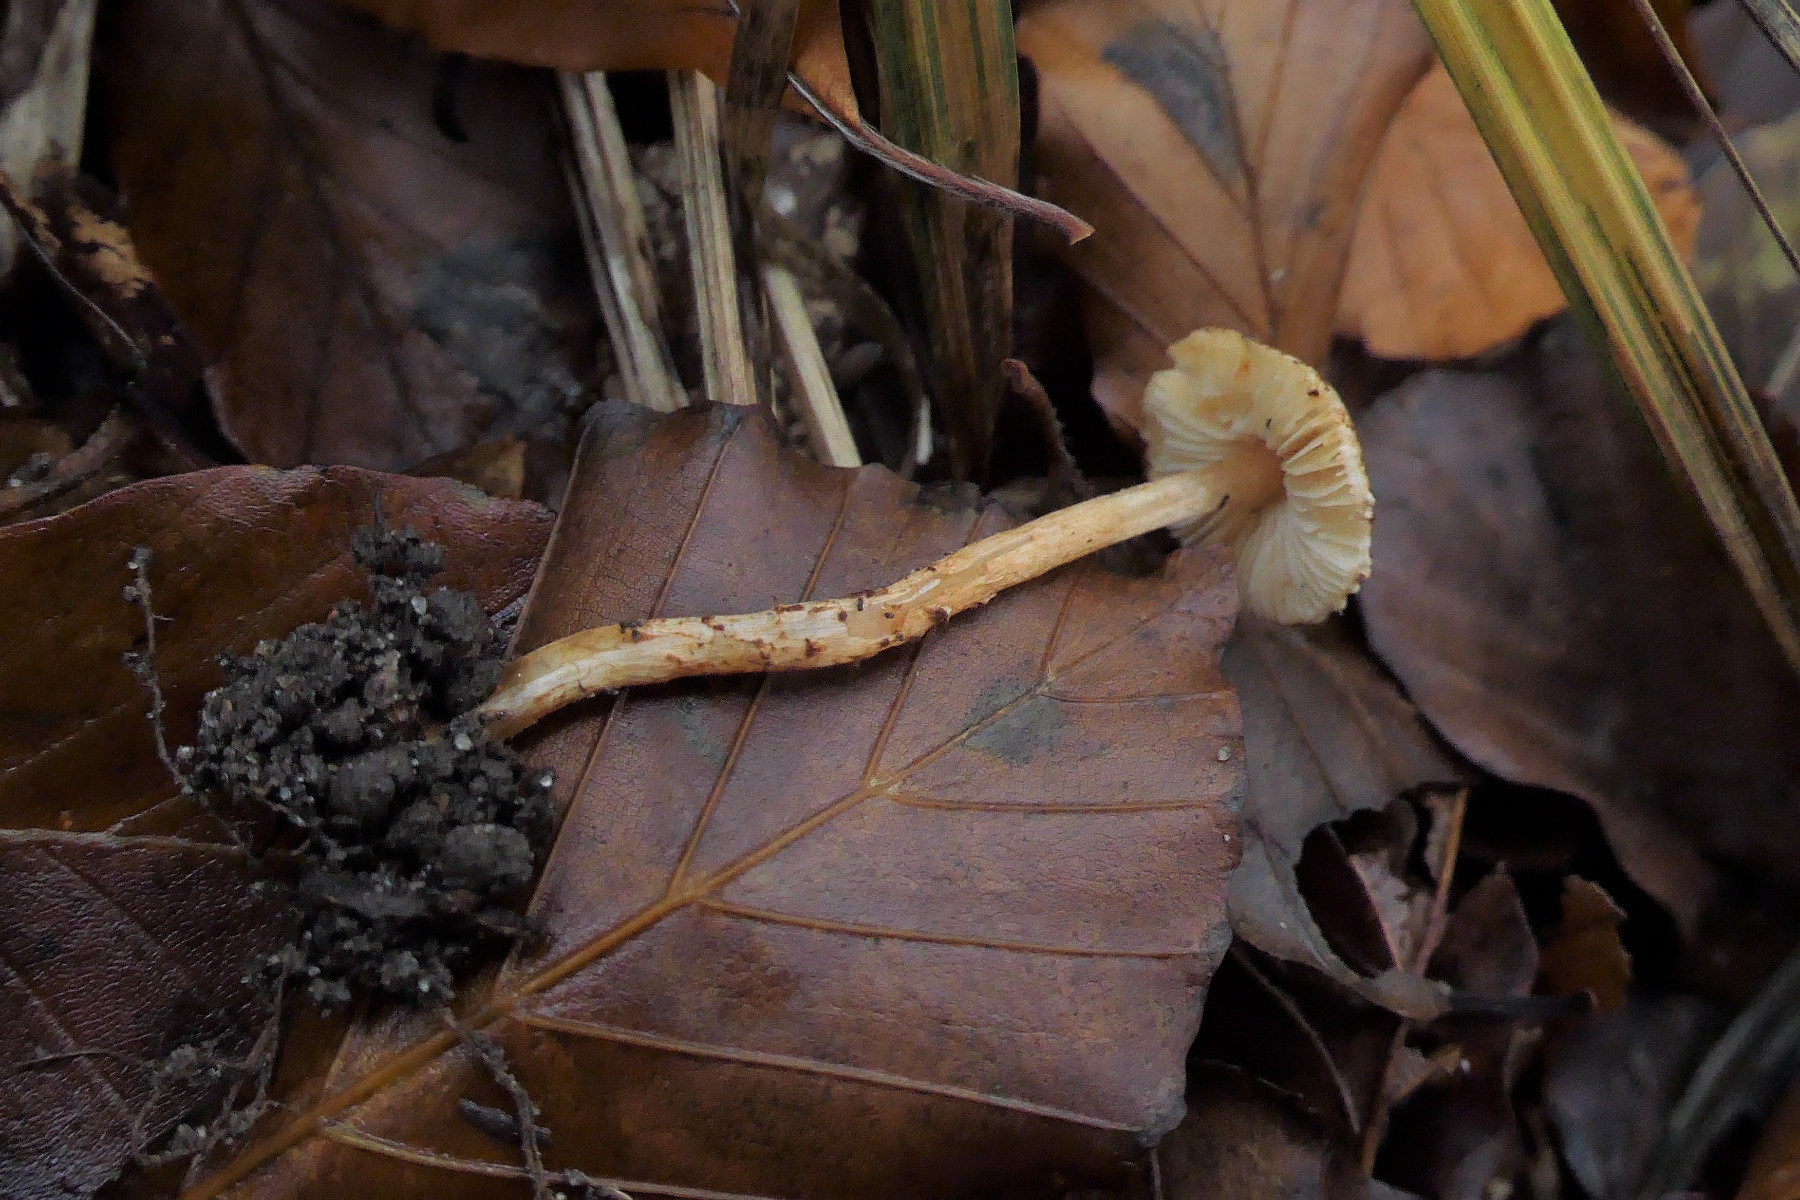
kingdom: Fungi
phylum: Basidiomycota
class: Agaricomycetes
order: Agaricales
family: Agaricaceae
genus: Lepiota
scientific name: Lepiota castanea
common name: kastaniebrun parasolhat
